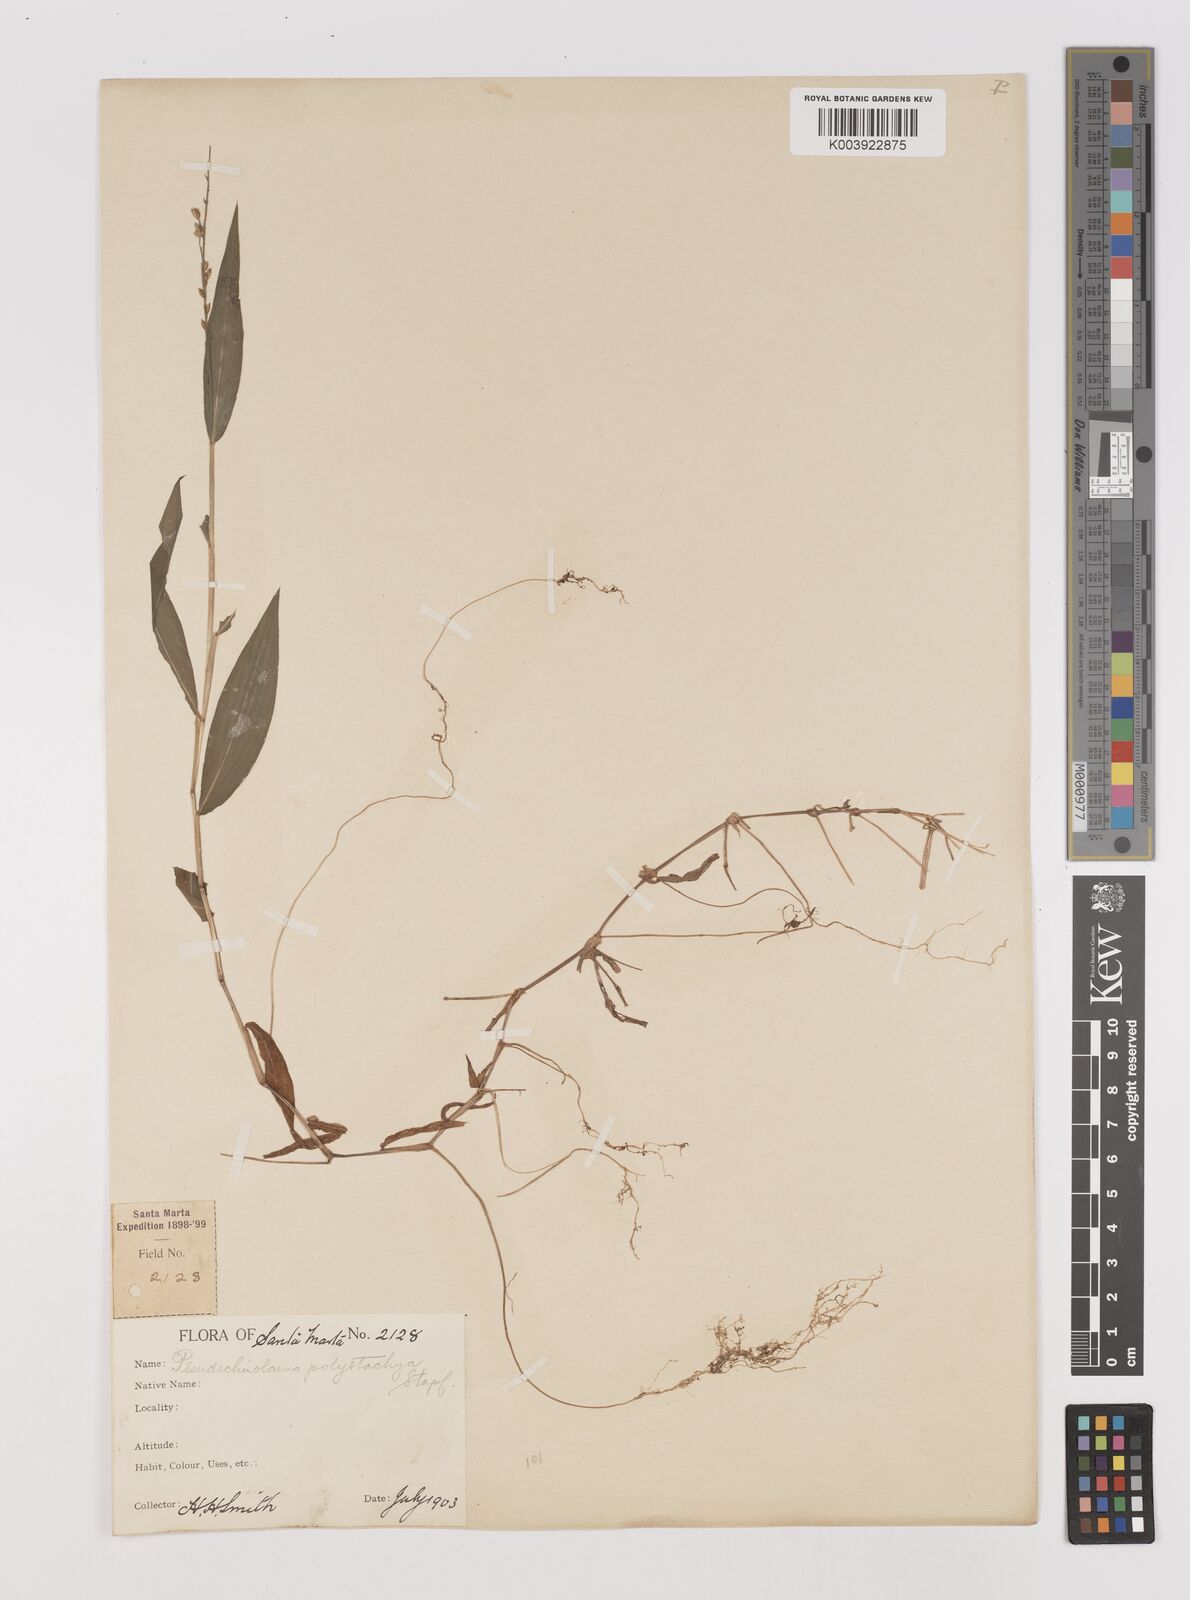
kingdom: Plantae
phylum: Tracheophyta
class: Liliopsida
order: Poales
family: Poaceae
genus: Pseudechinolaena
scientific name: Pseudechinolaena polystachya
